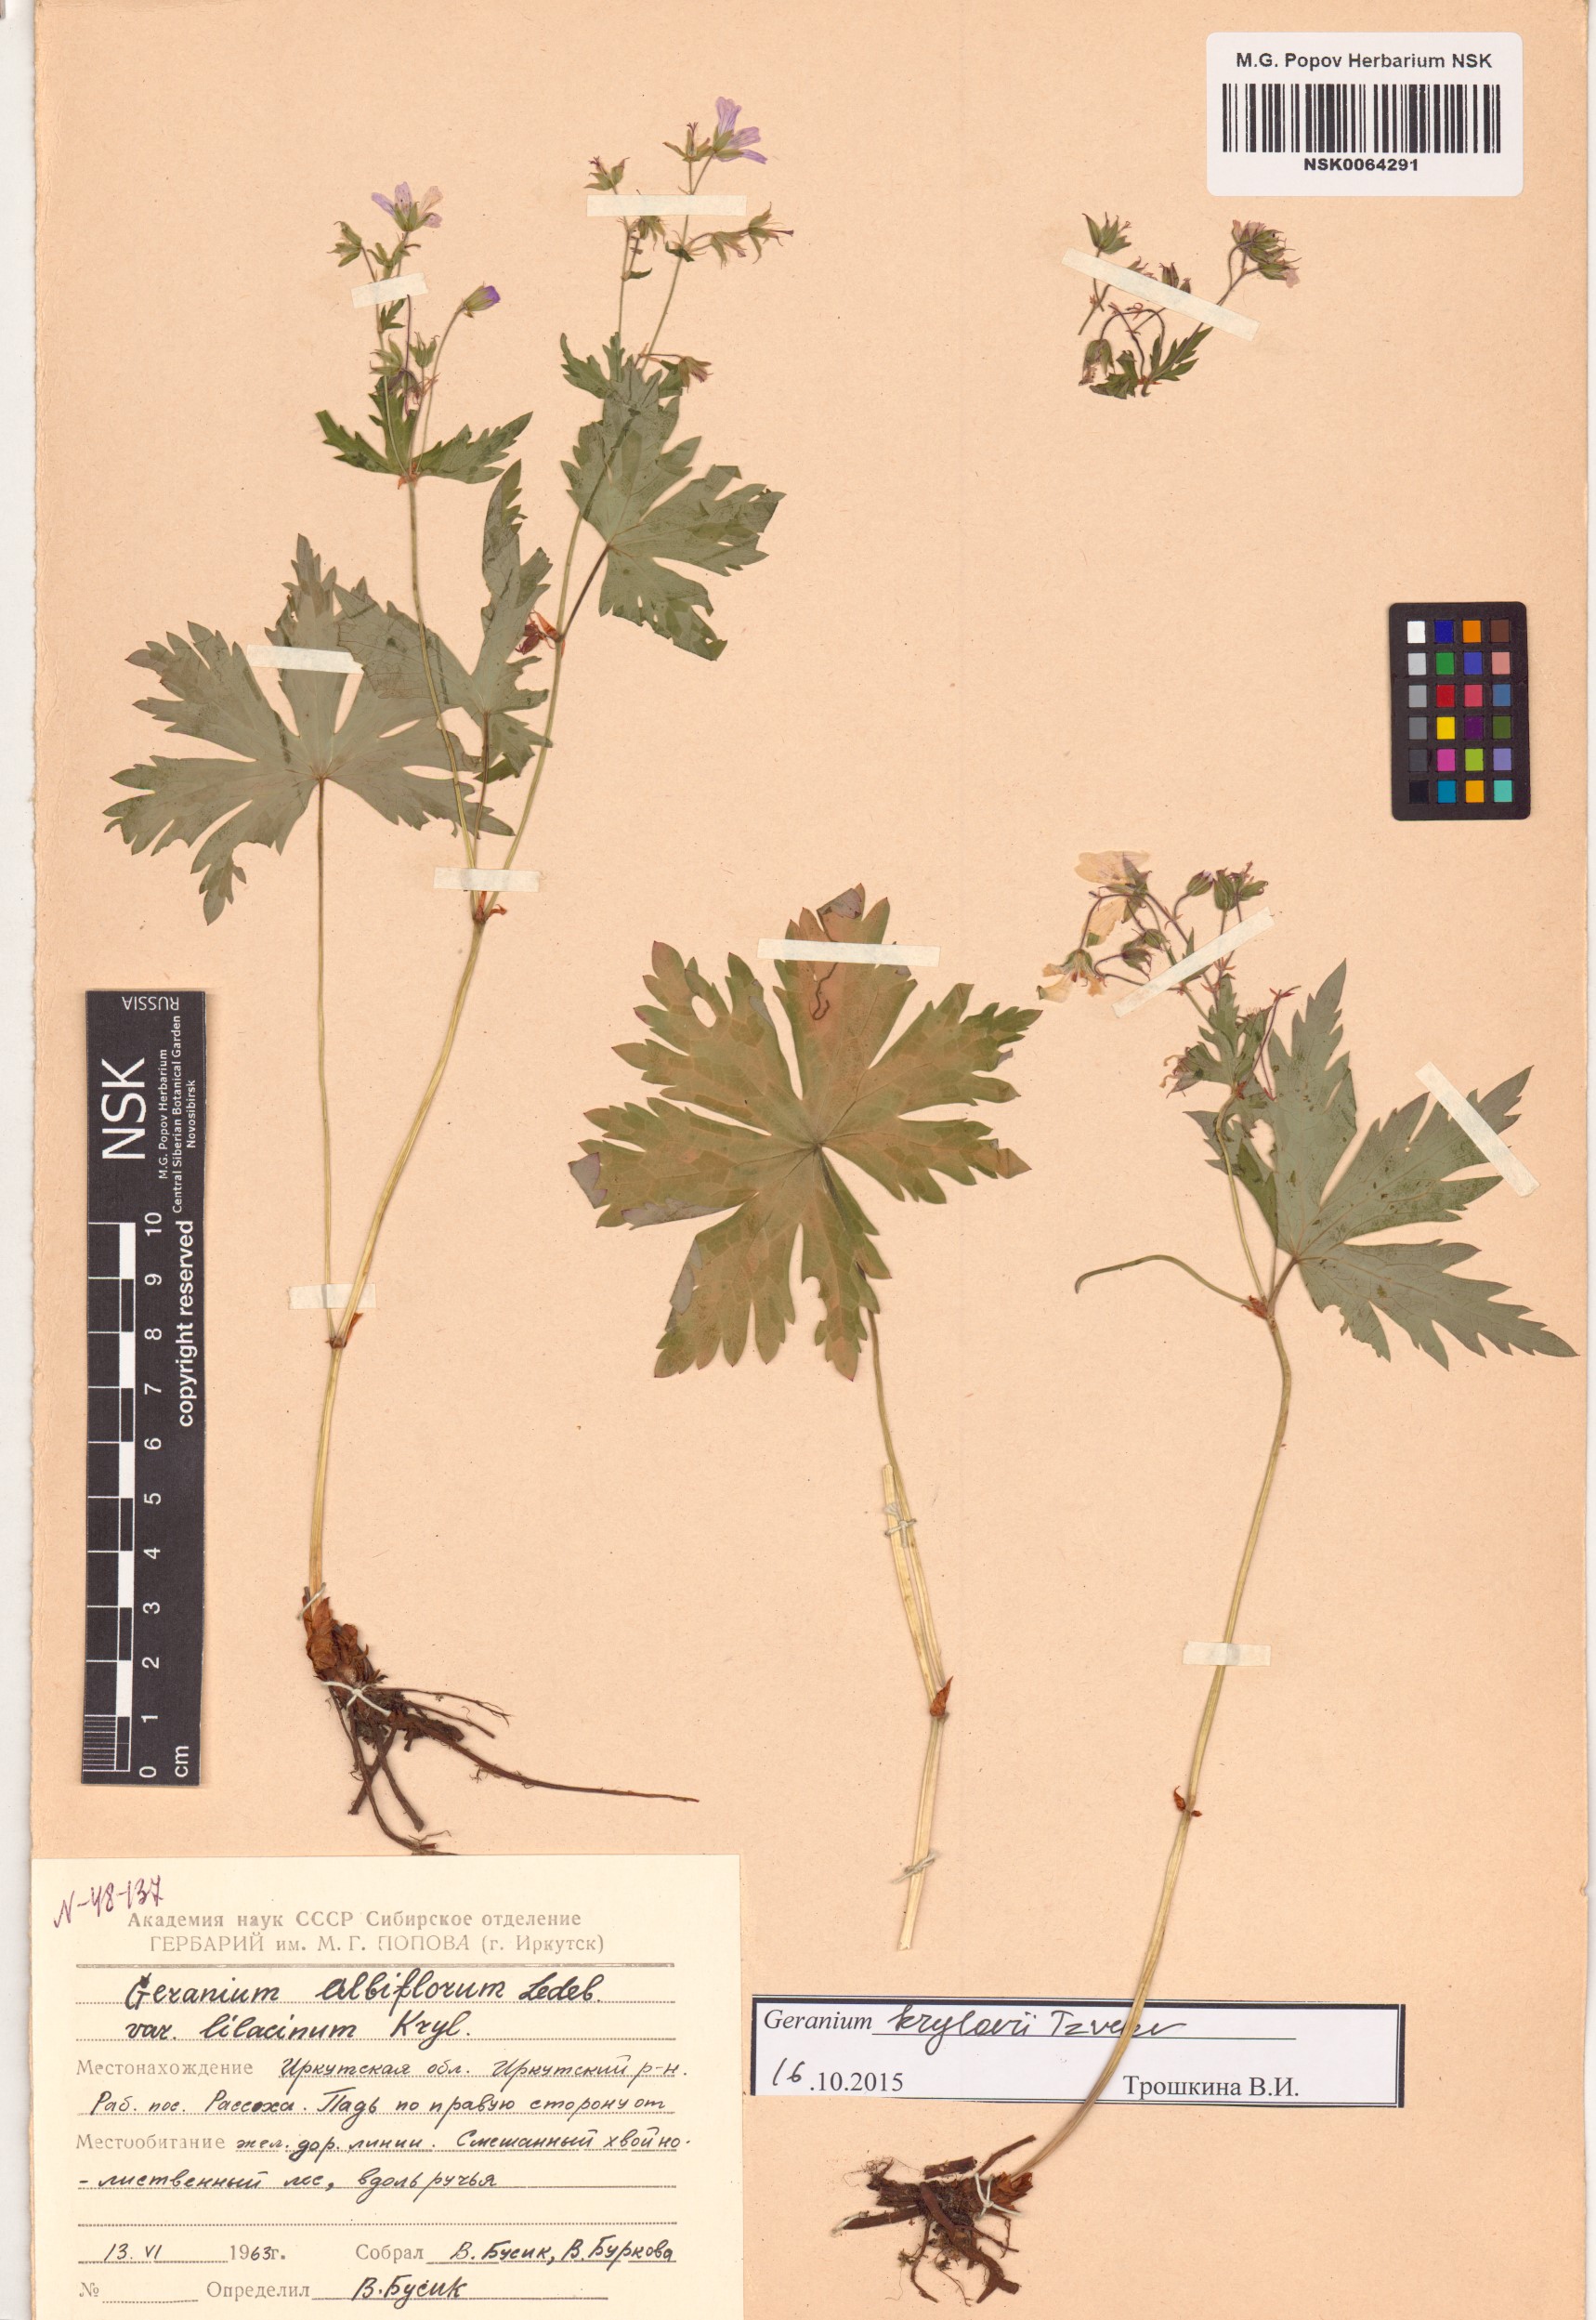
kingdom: Plantae
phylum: Tracheophyta
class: Magnoliopsida
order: Geraniales
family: Geraniaceae
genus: Geranium
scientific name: Geranium sylvaticum
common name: Wood crane's-bill
